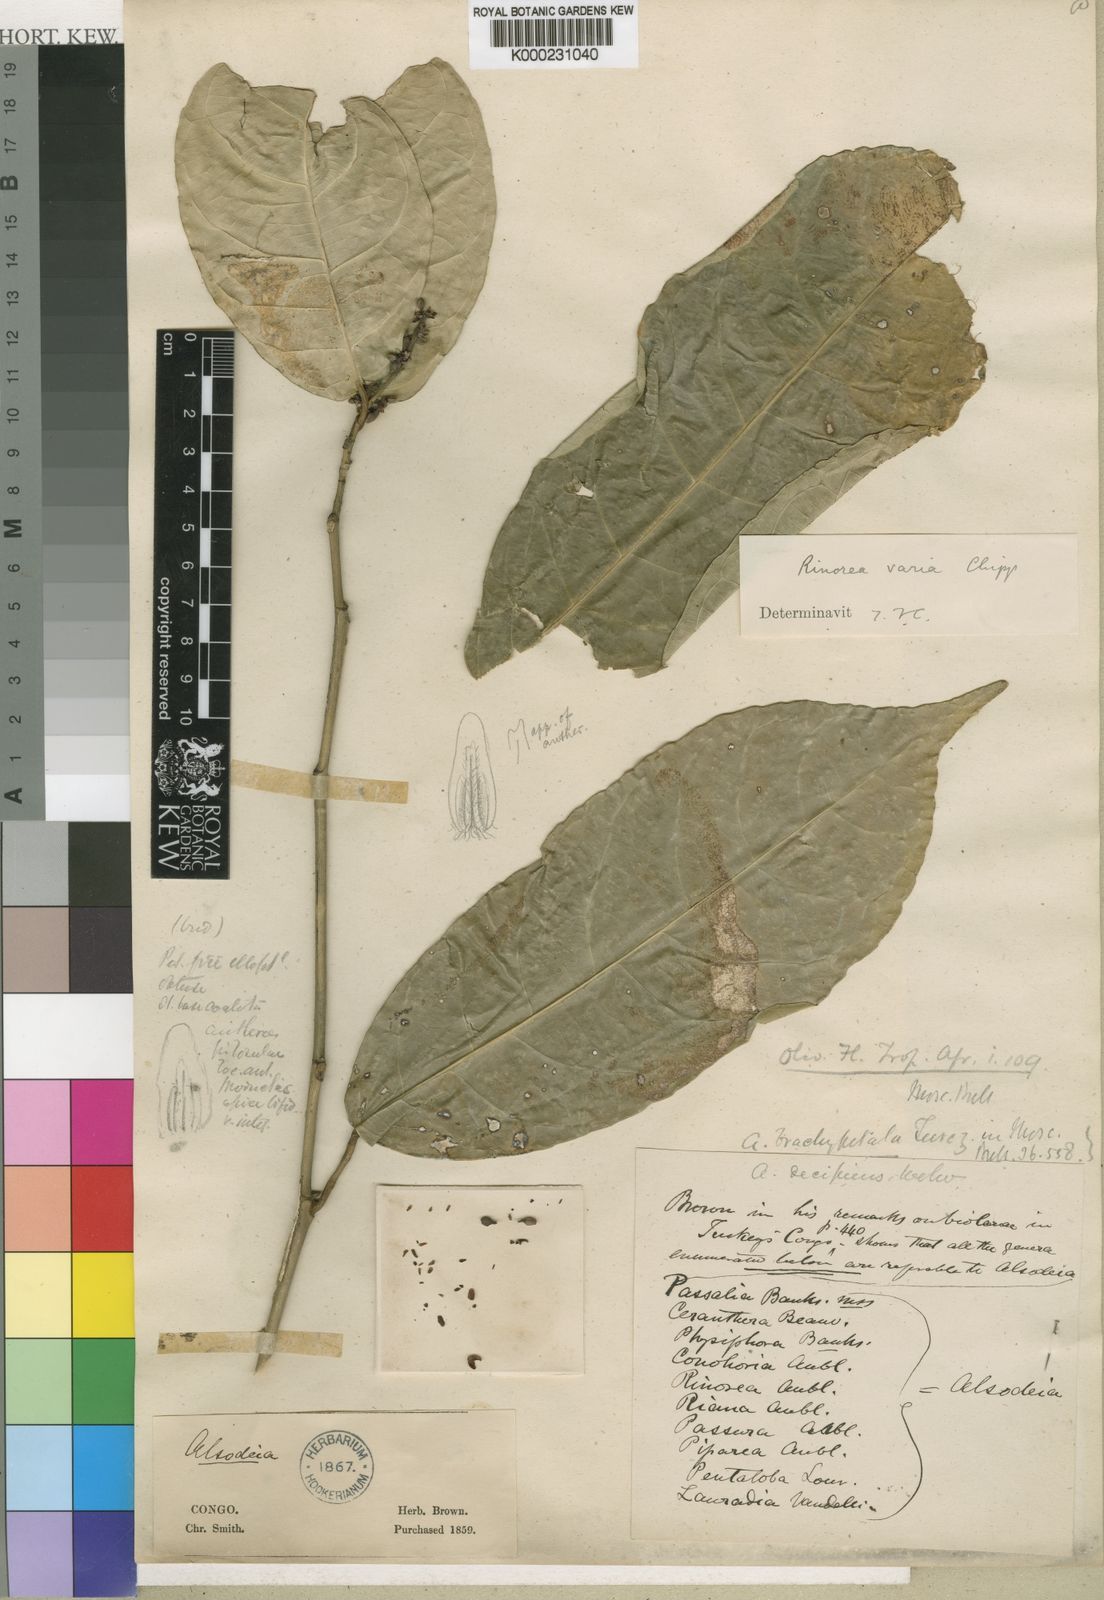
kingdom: Plantae
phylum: Tracheophyta
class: Magnoliopsida
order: Malpighiales
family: Violaceae
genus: Rinorea
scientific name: Rinorea brachypetala
